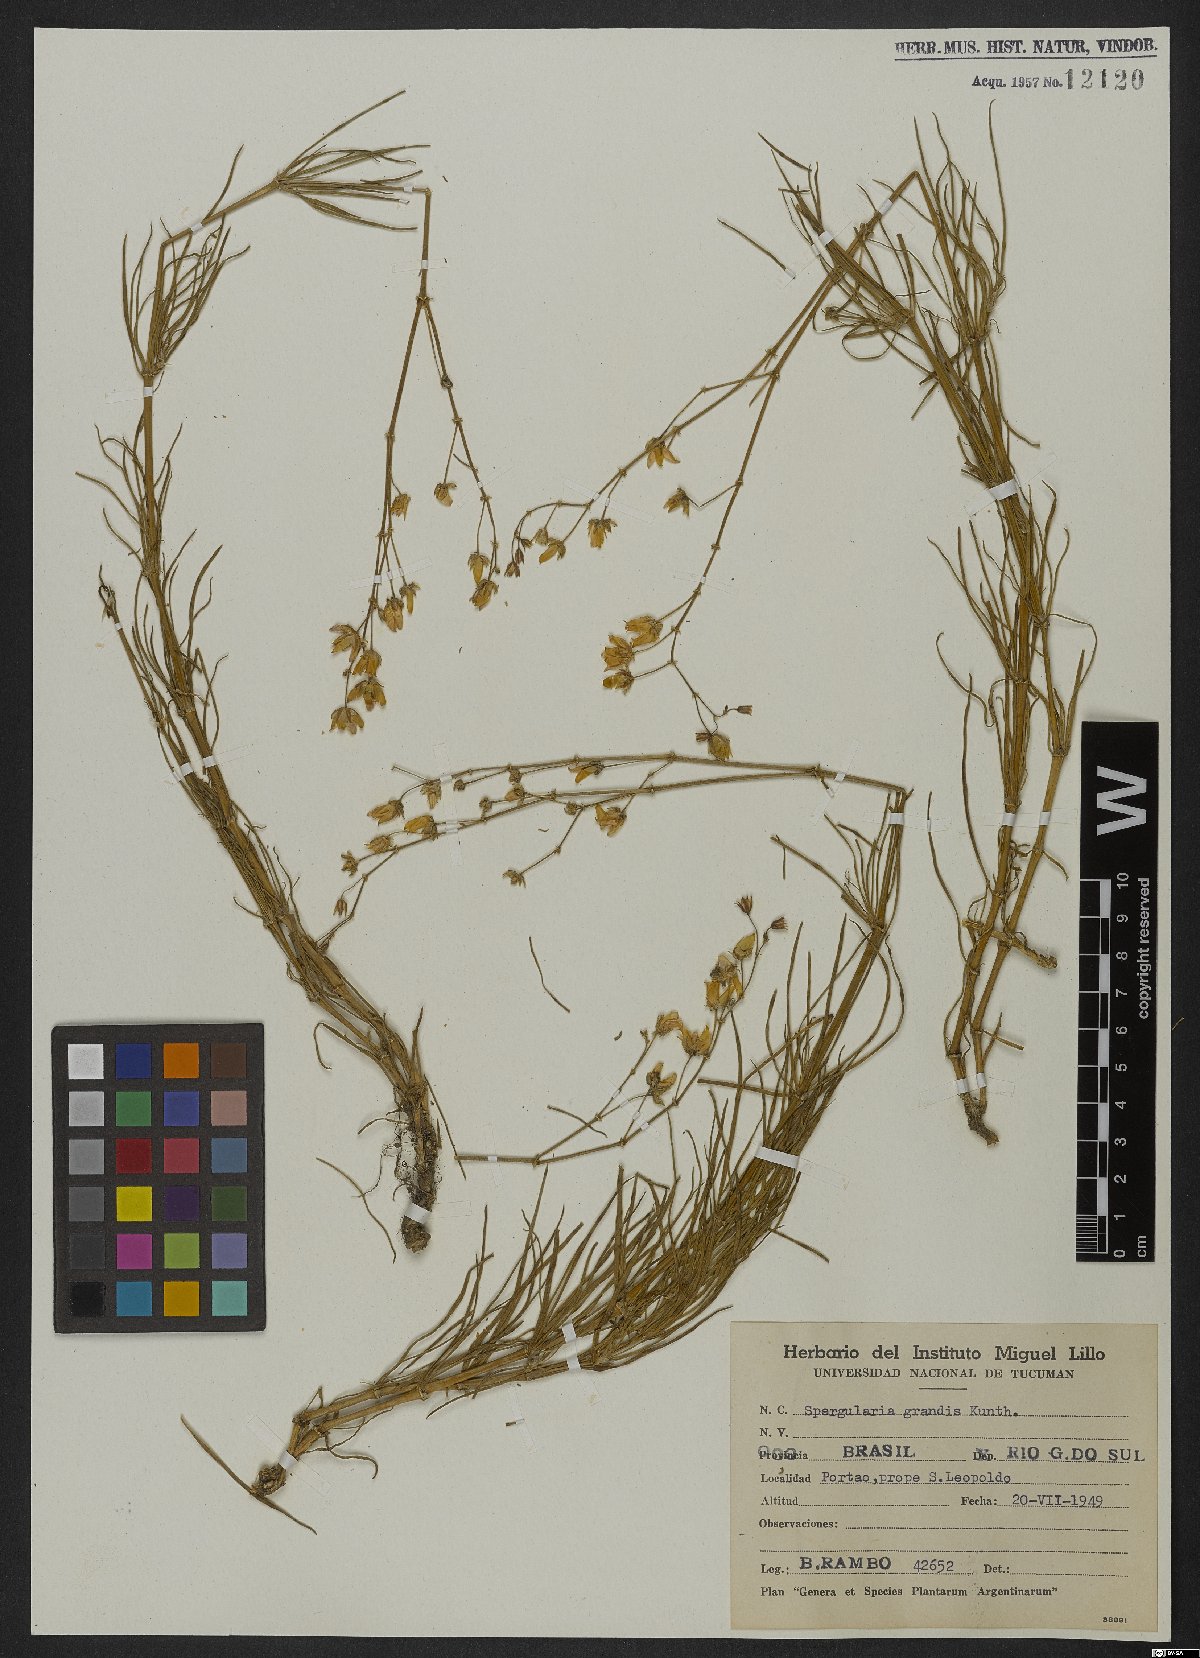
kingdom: Plantae
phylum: Tracheophyta
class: Magnoliopsida
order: Caryophyllales
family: Caryophyllaceae
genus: Spergula
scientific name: Spergula grandis
